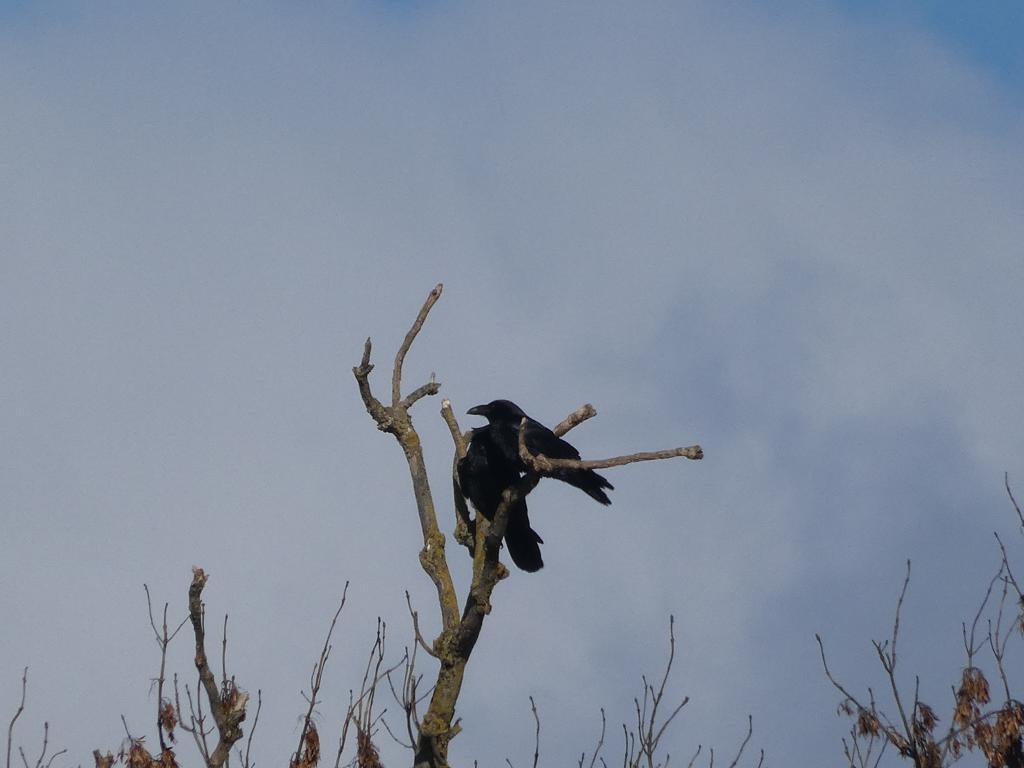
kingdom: Animalia
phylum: Chordata
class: Aves
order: Passeriformes
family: Corvidae
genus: Corvus
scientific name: Corvus corax
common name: Ravn
